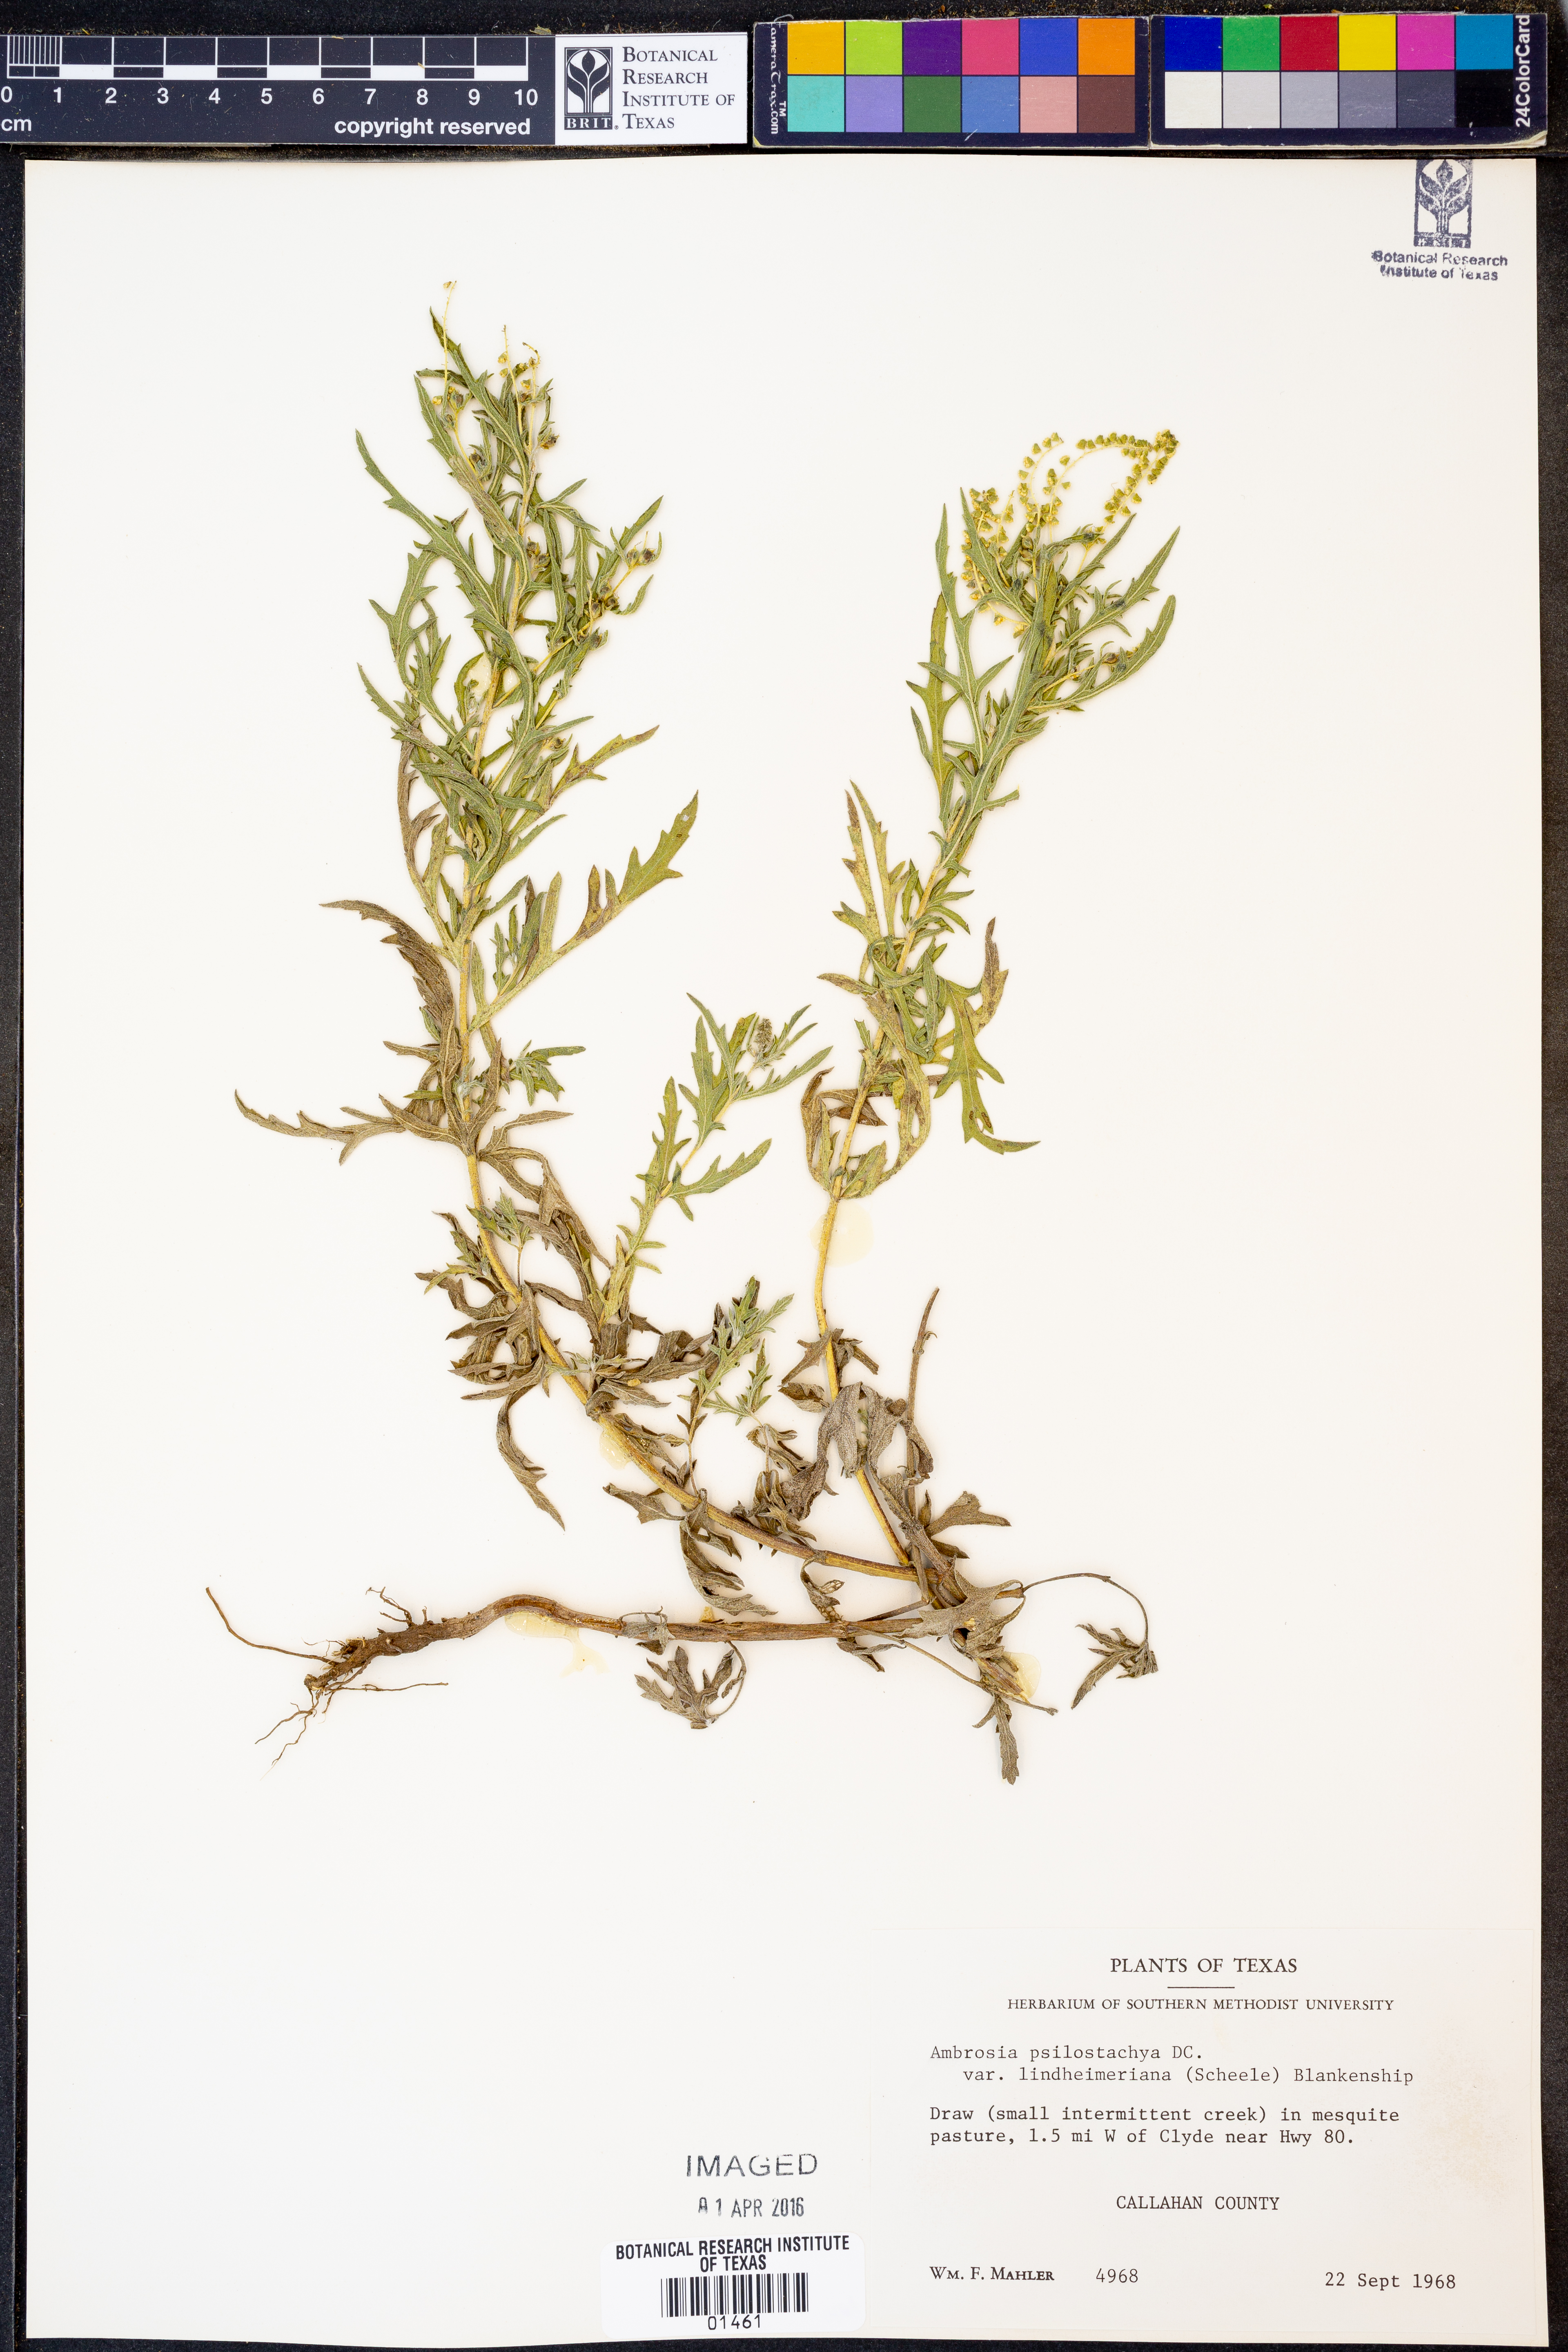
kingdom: Plantae
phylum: Tracheophyta
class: Magnoliopsida
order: Asterales
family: Asteraceae
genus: Ambrosia
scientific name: Ambrosia psilostachya
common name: Perennial ragweed
